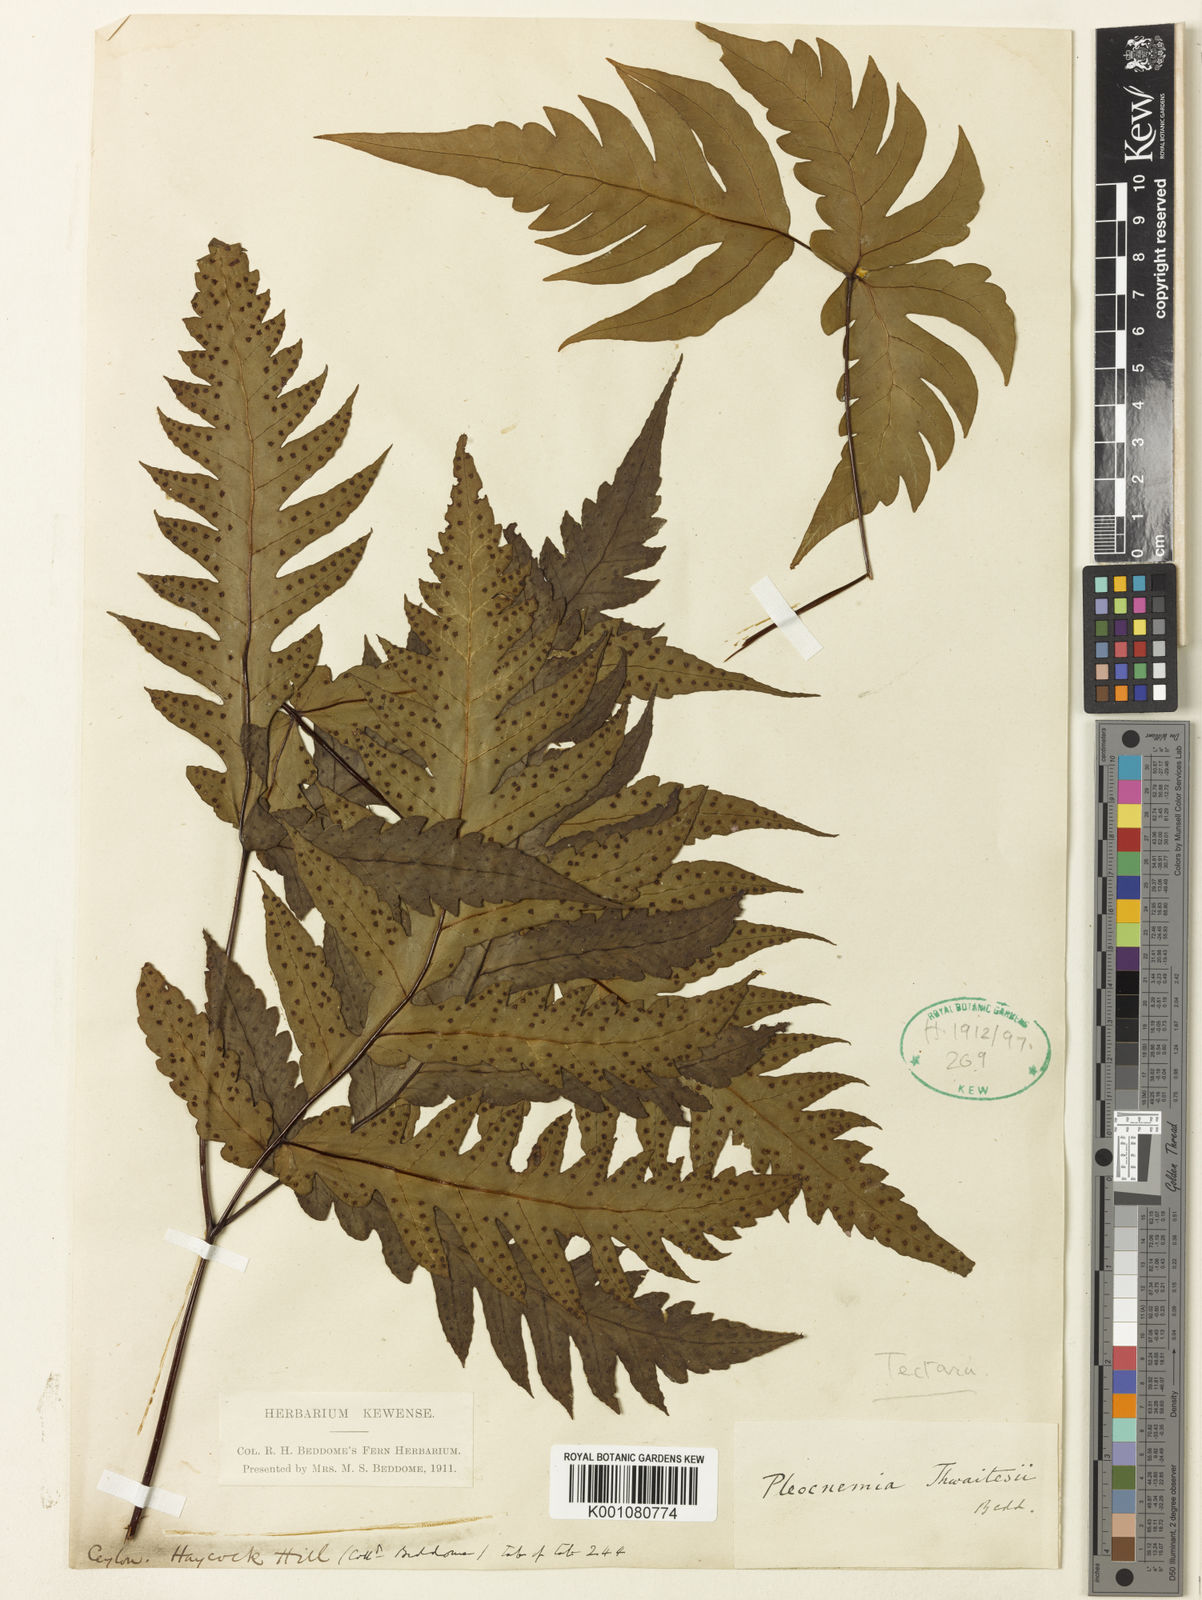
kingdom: Plantae
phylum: Tracheophyta
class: Polypodiopsida
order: Polypodiales
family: Tectariaceae
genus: Tectaria
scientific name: Tectaria thwaitesii
